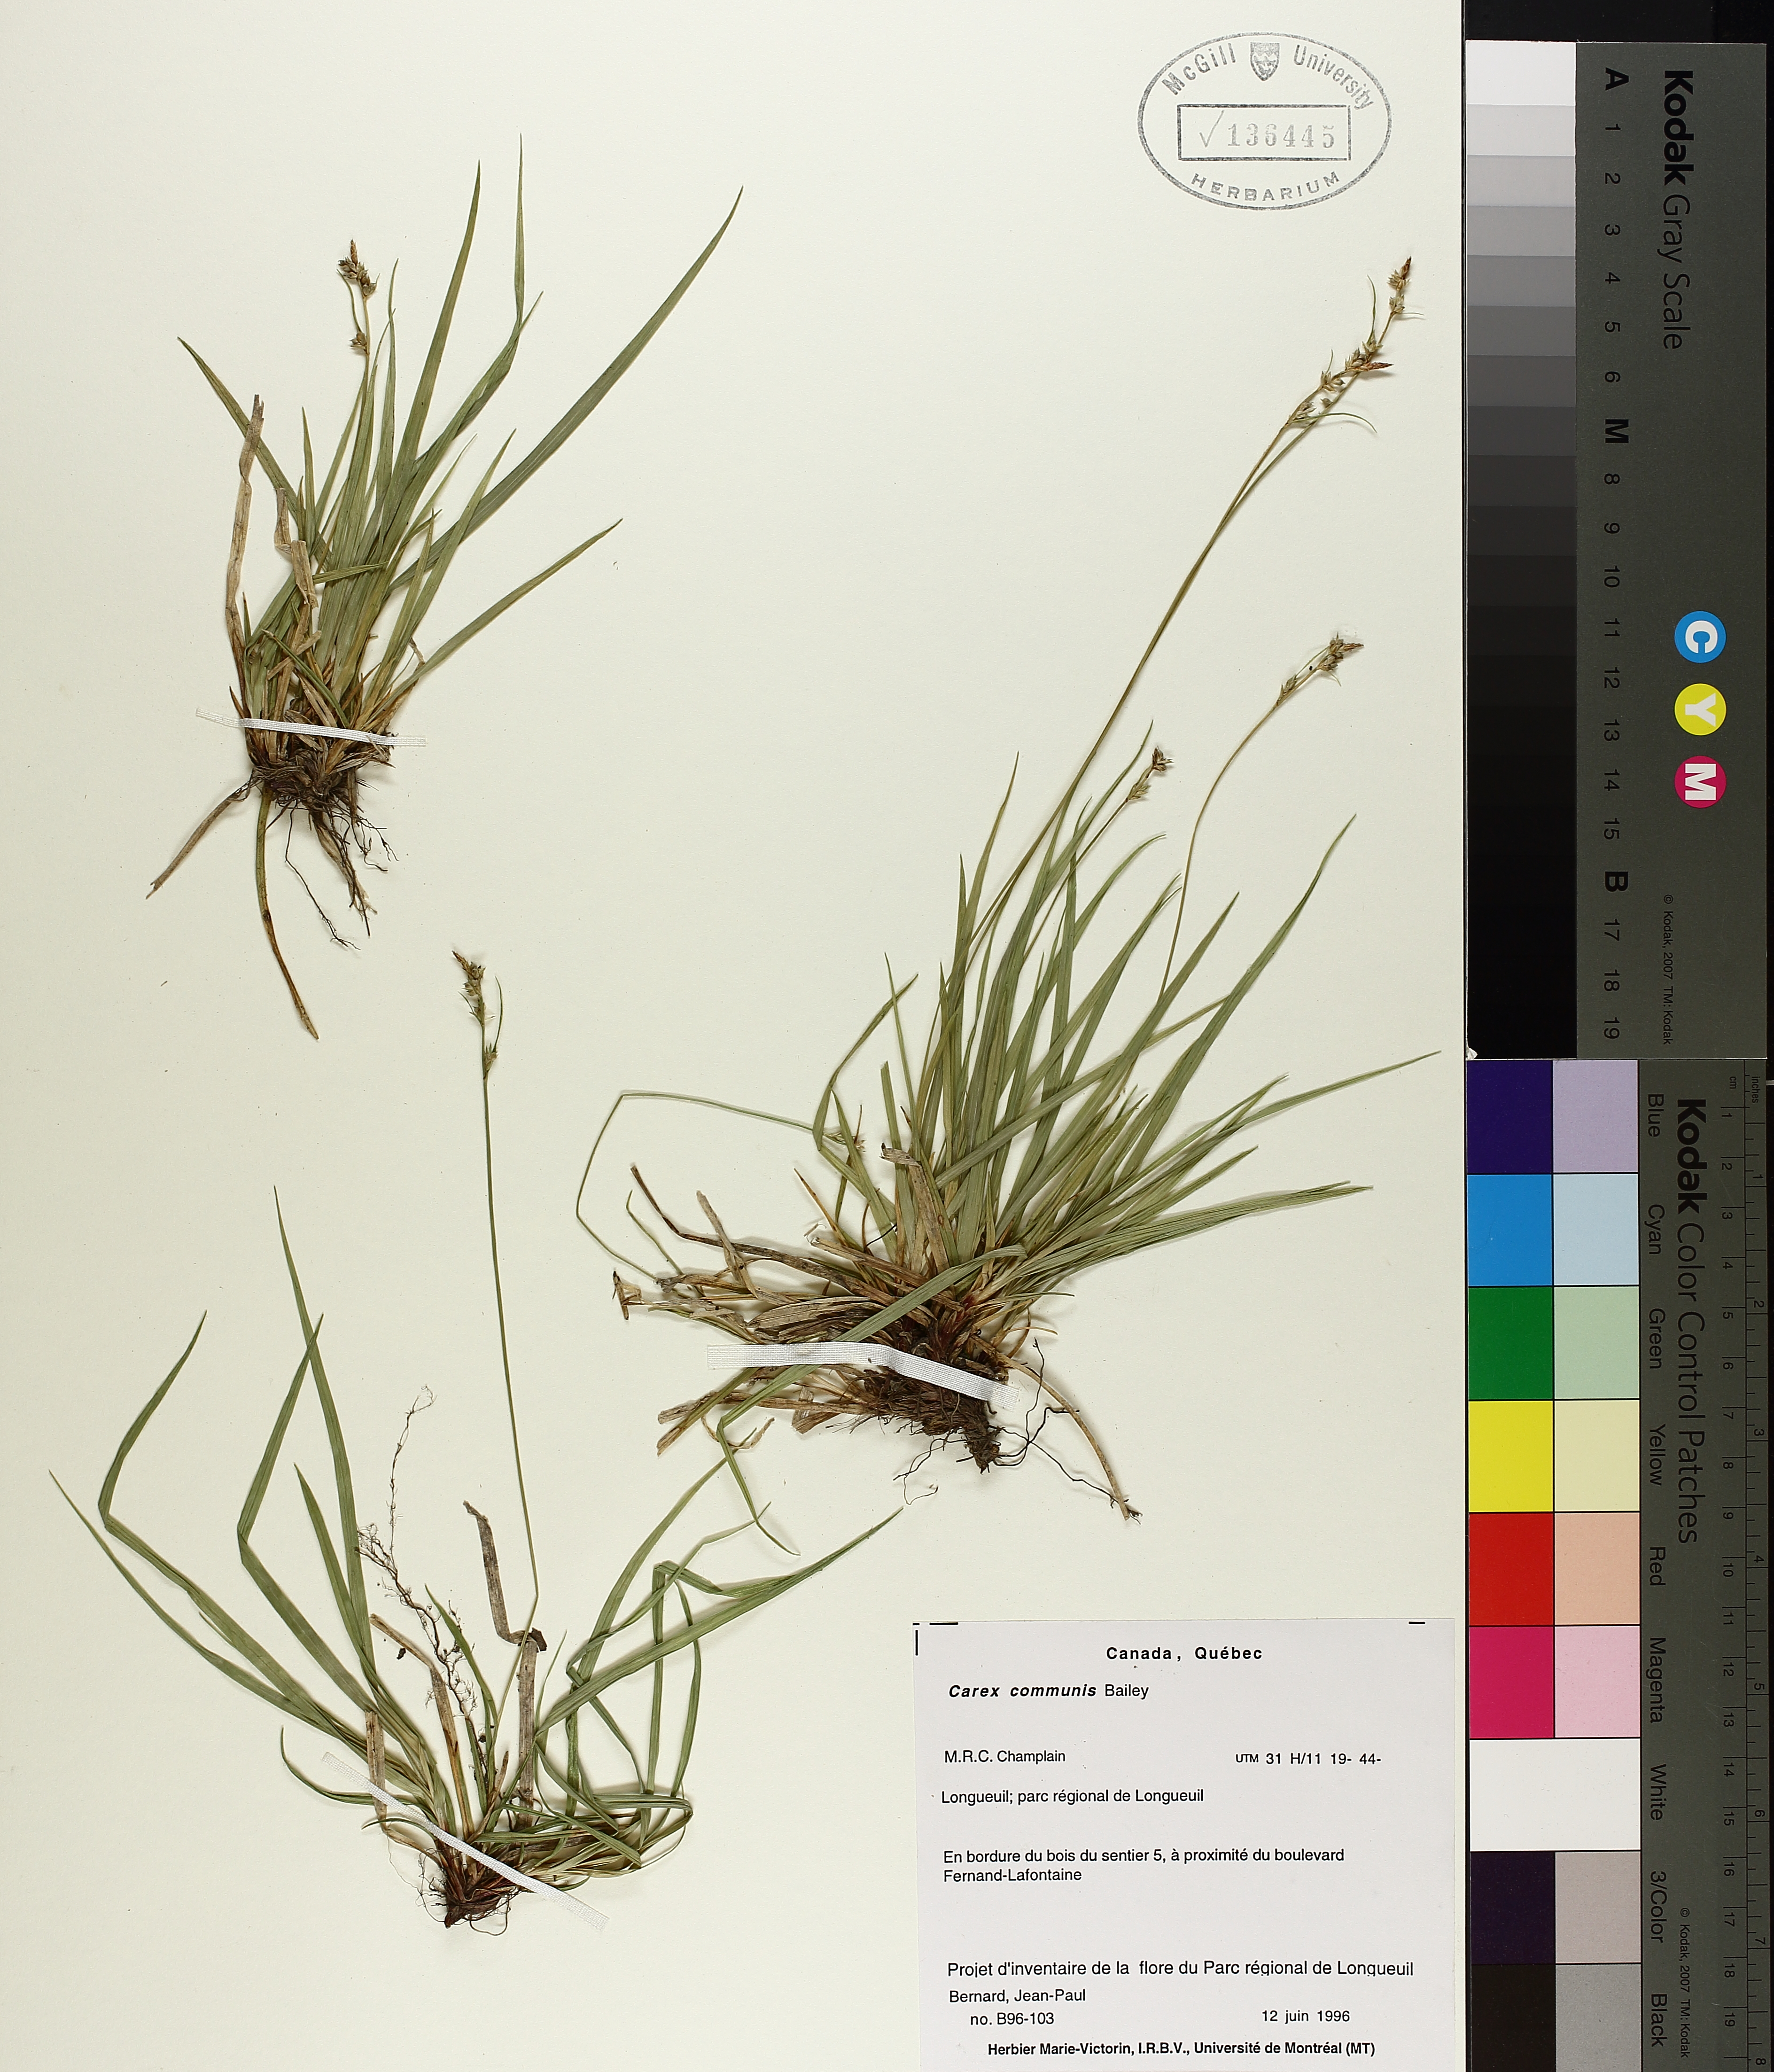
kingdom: Plantae
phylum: Tracheophyta
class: Liliopsida
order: Poales
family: Cyperaceae
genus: Carex
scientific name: Carex communis
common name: Colonial oak sedge
